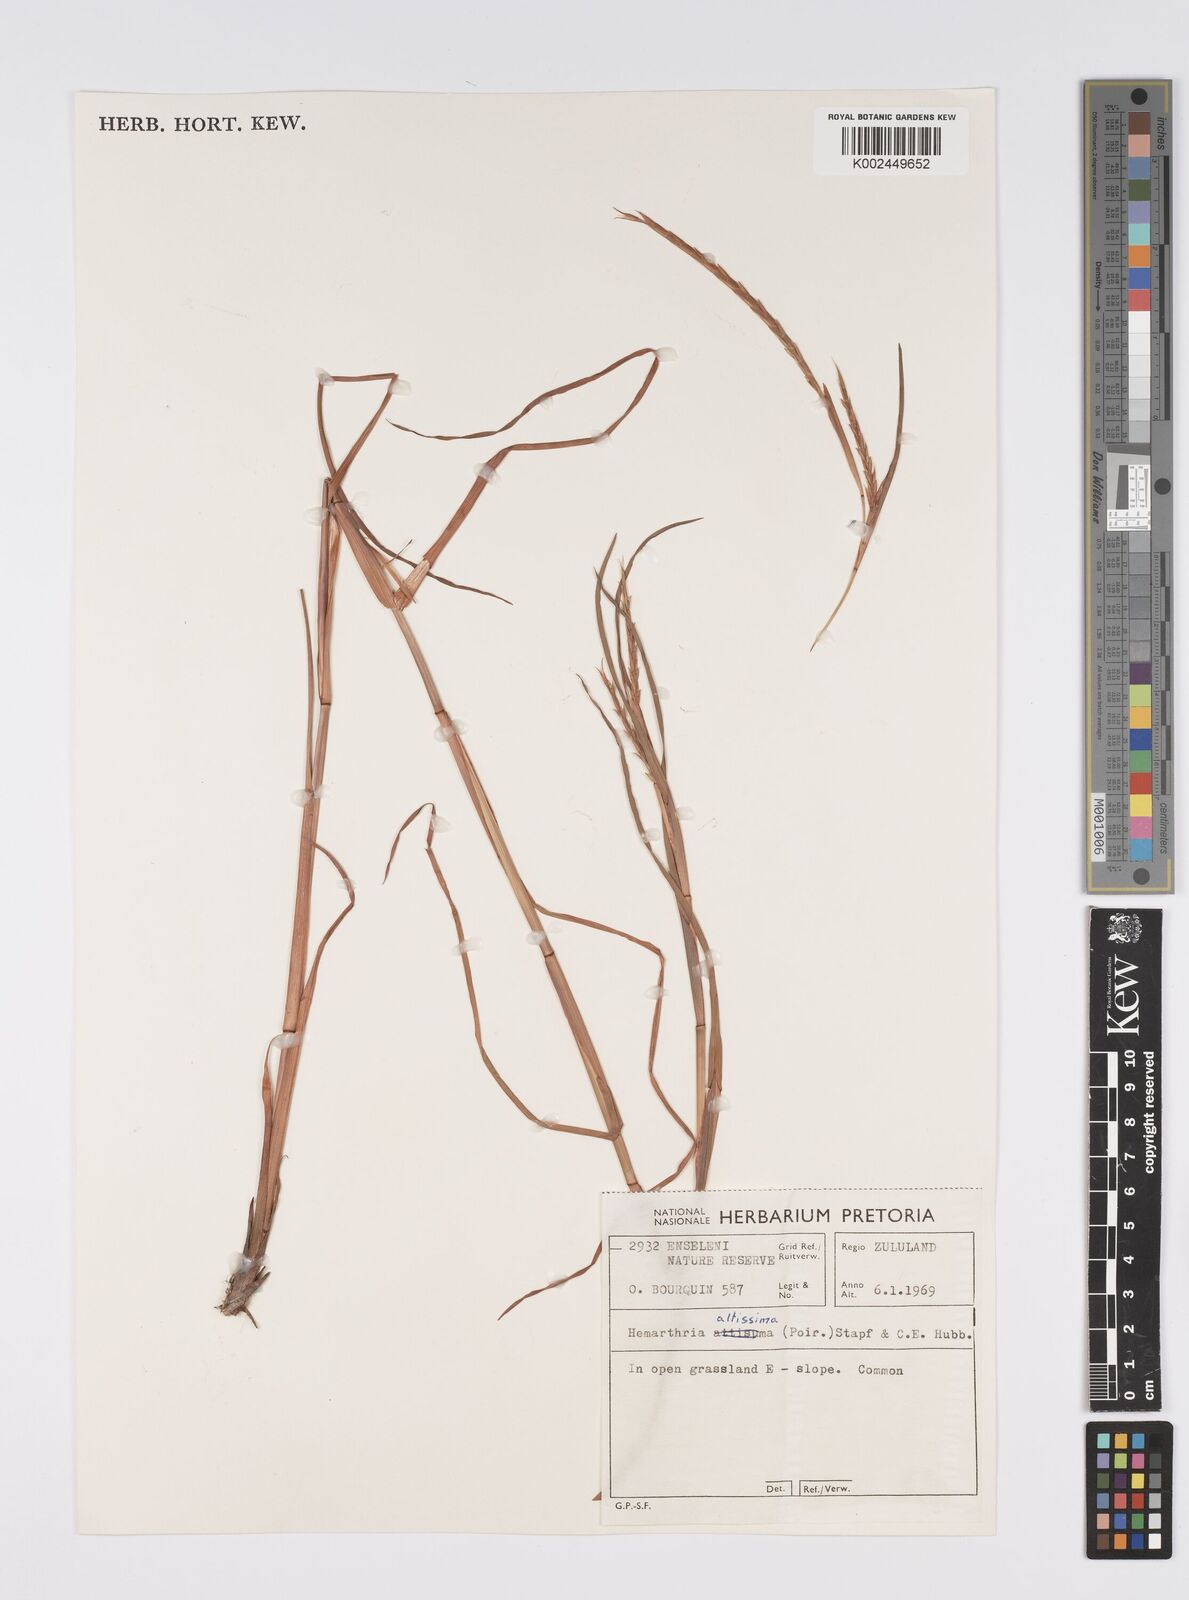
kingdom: Plantae
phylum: Tracheophyta
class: Liliopsida
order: Poales
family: Poaceae
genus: Hemarthria
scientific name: Hemarthria altissima
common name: African jointgrass
